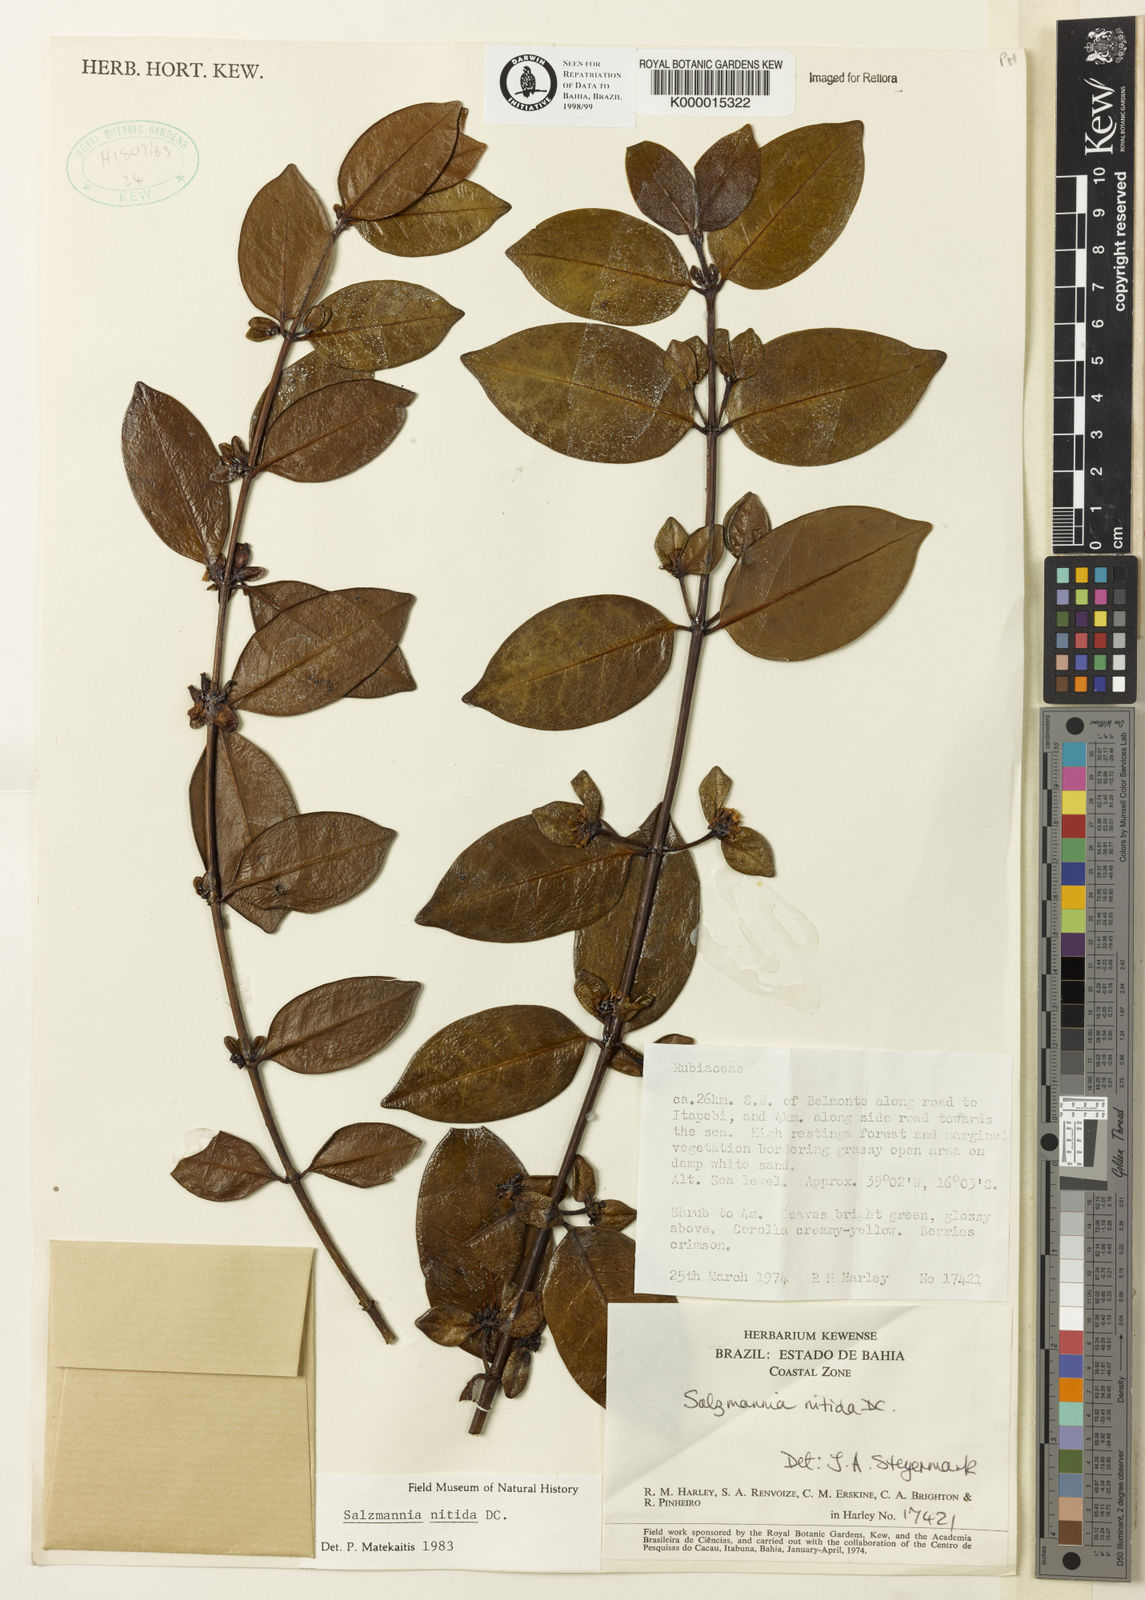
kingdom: Plantae
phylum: Tracheophyta
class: Magnoliopsida
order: Gentianales
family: Rubiaceae
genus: Salzmannia
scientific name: Salzmannia nitida
